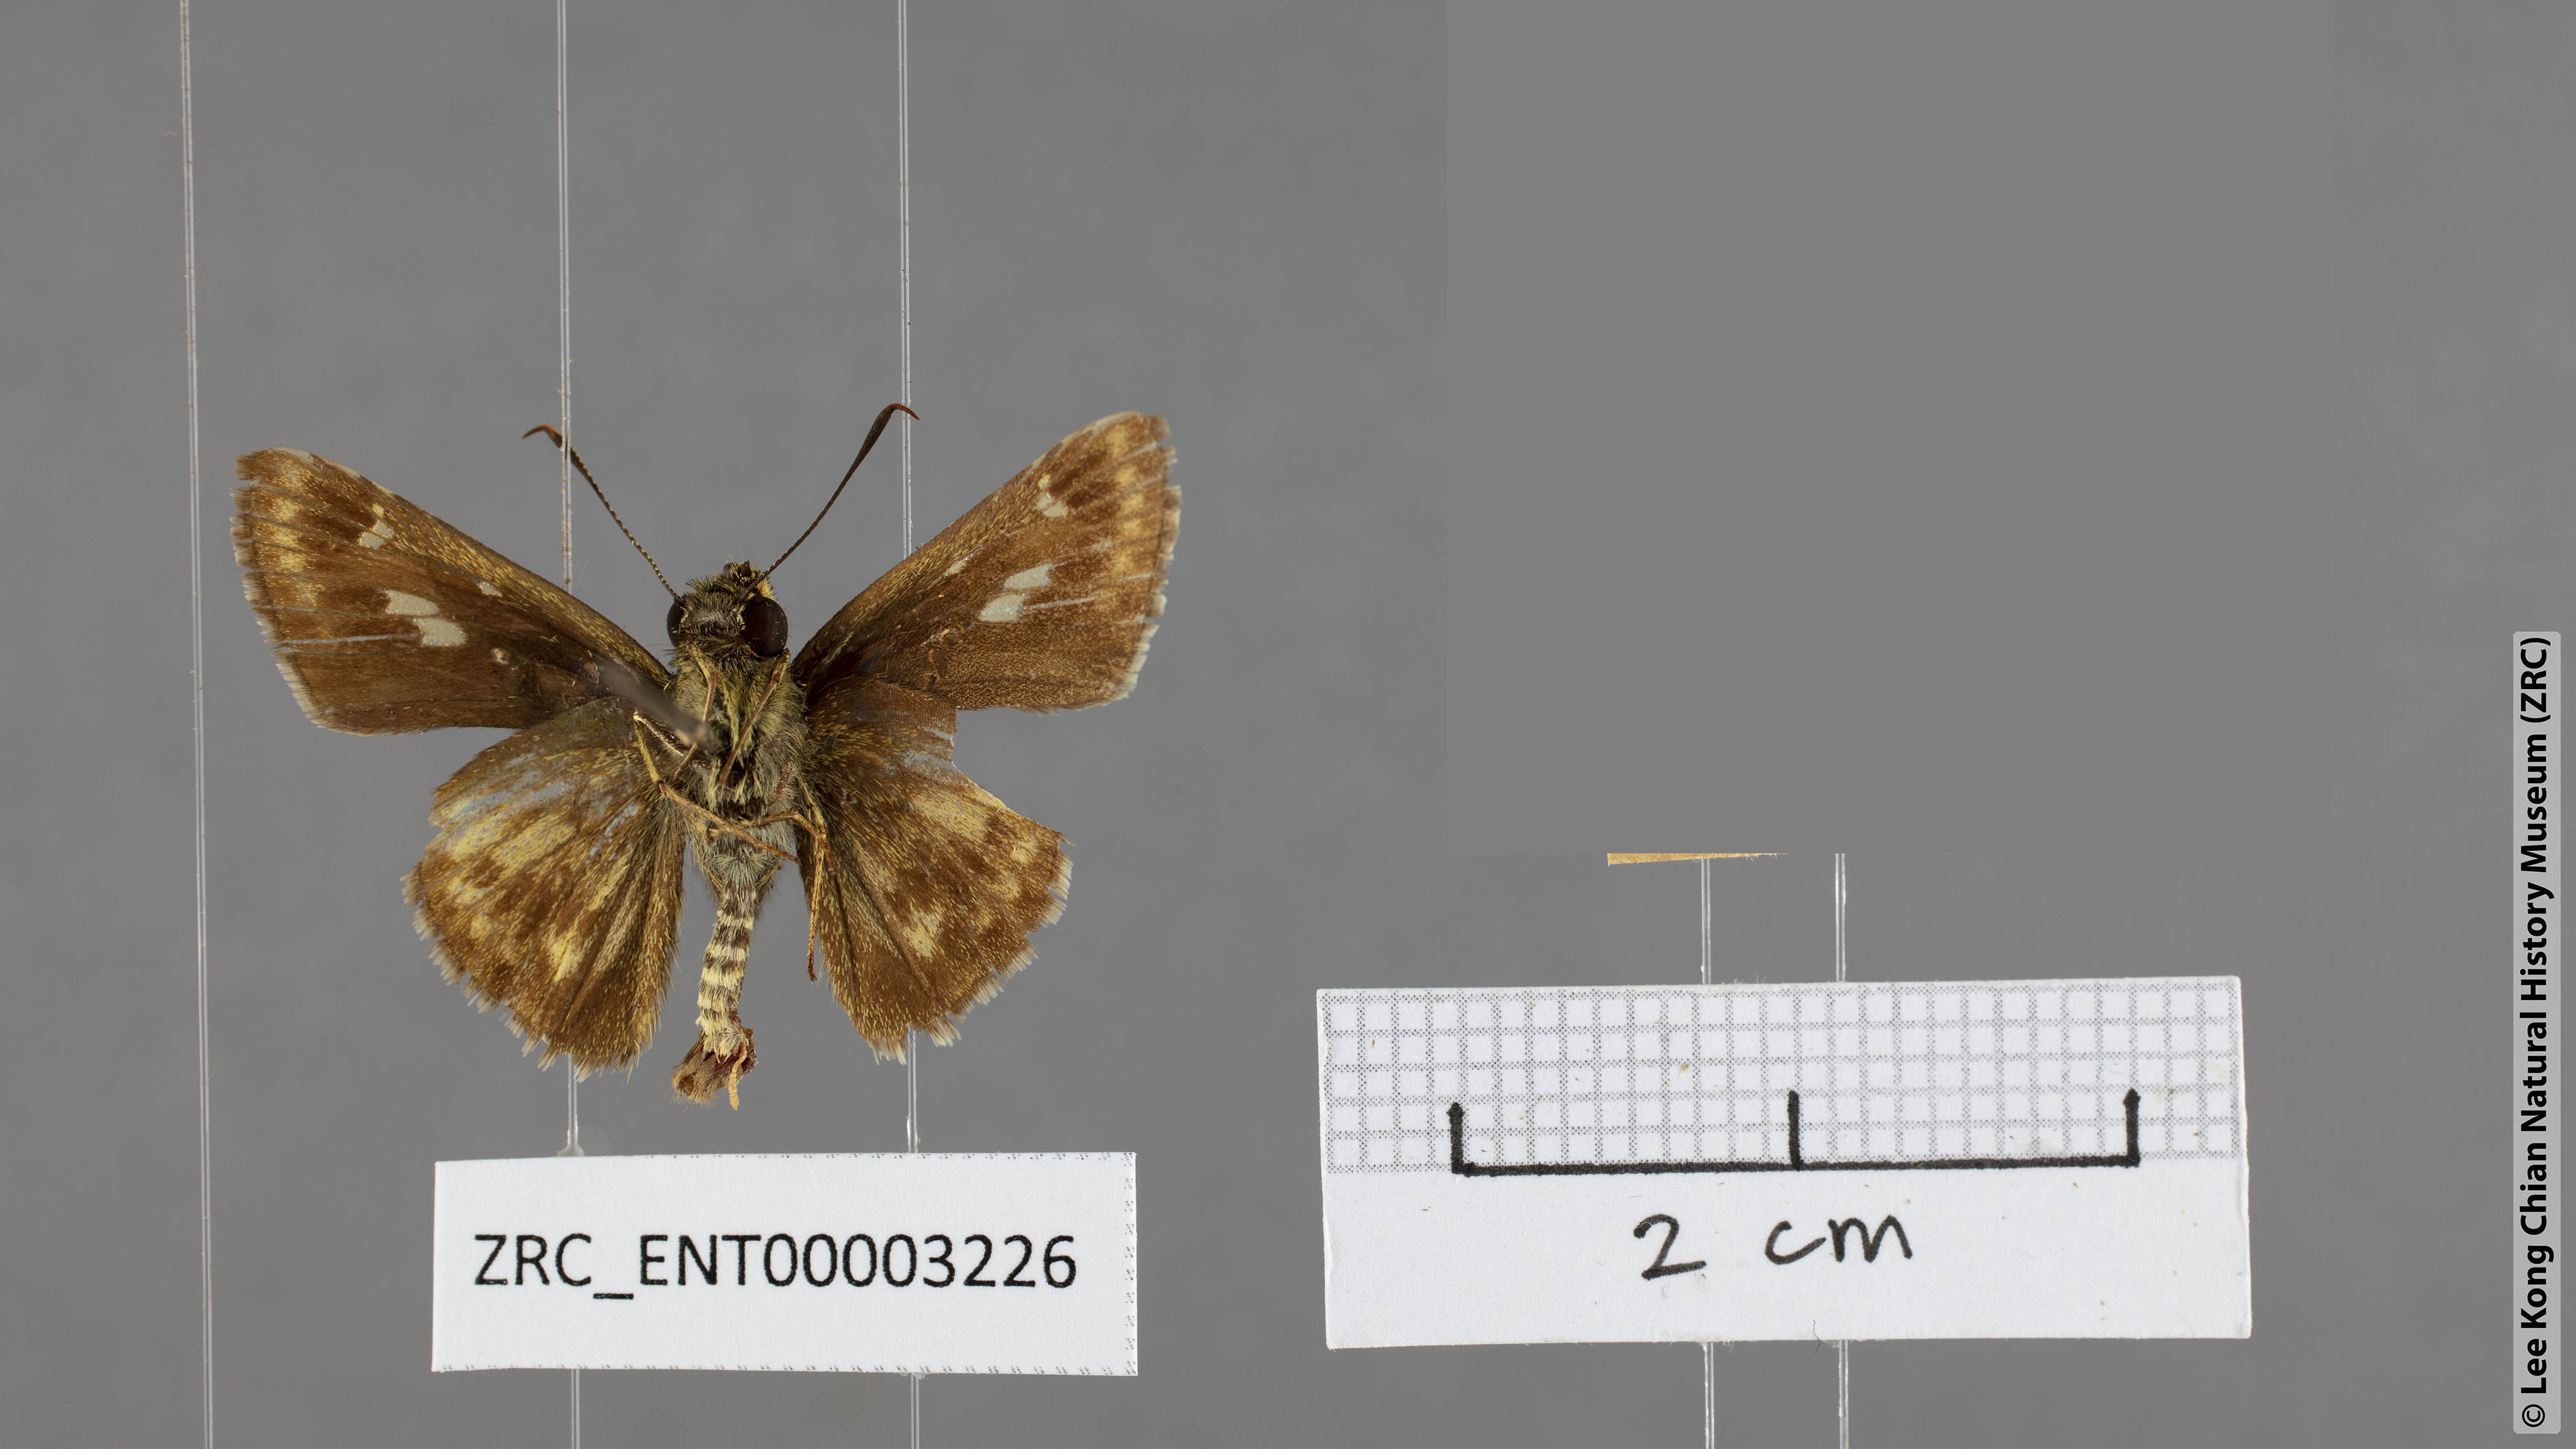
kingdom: Animalia
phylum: Arthropoda
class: Insecta
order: Lepidoptera
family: Hesperiidae
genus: Halpe
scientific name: Halpe flava
